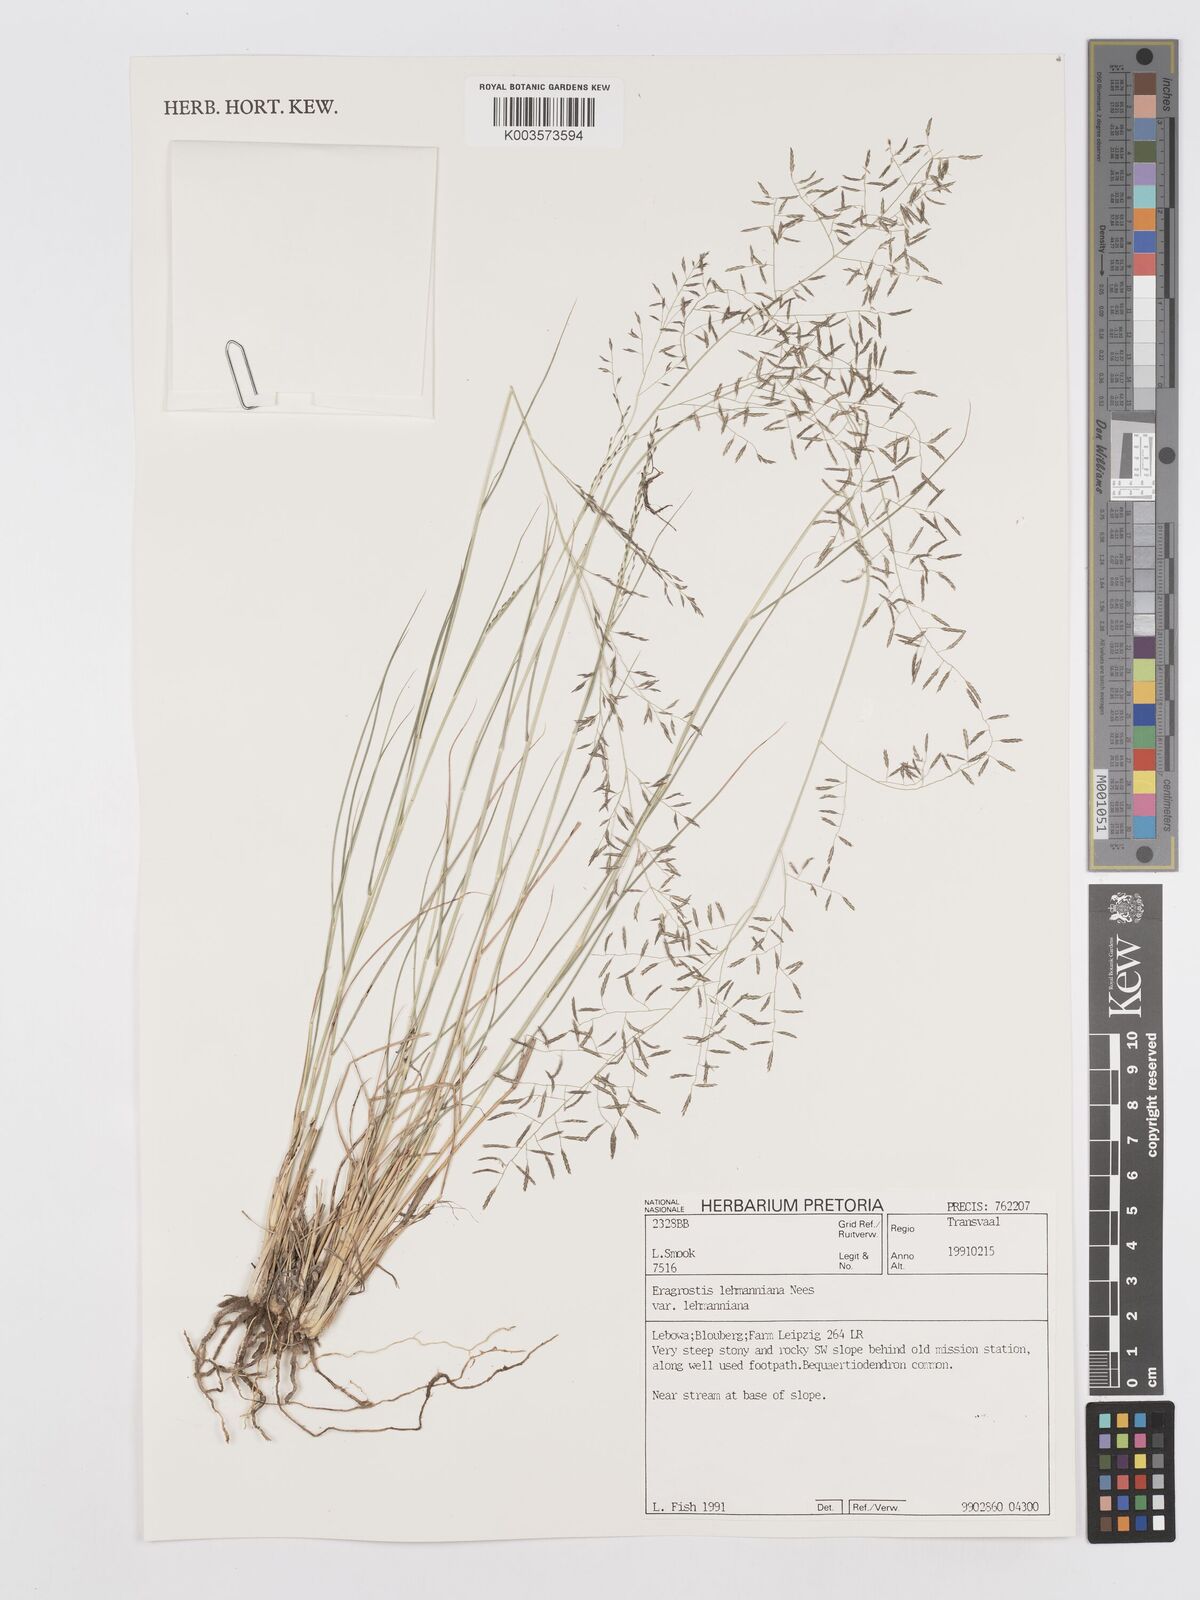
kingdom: Plantae
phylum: Tracheophyta
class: Liliopsida
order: Poales
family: Poaceae
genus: Eragrostis
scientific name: Eragrostis lehmanniana
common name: Lehmann lovegrass
